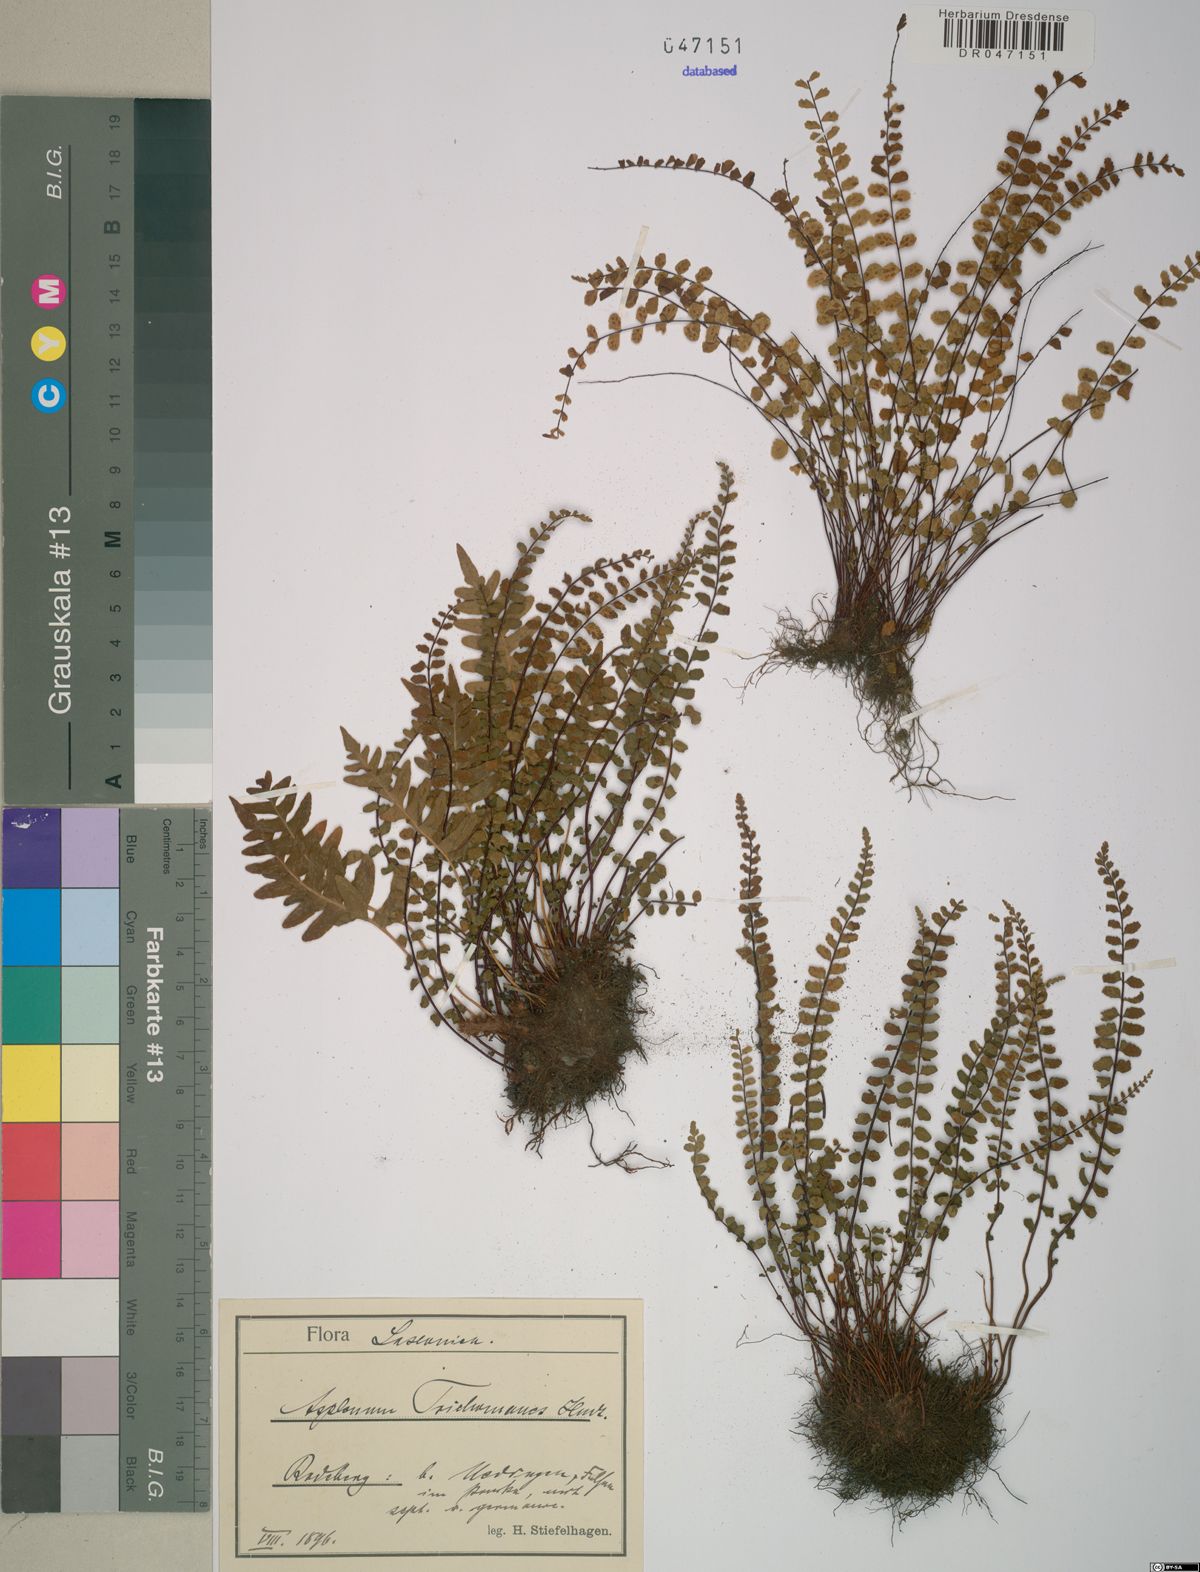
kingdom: Plantae
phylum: Tracheophyta
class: Polypodiopsida
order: Polypodiales
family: Aspleniaceae
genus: Asplenium
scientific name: Asplenium trichomanes
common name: Maidenhair spleenwort
